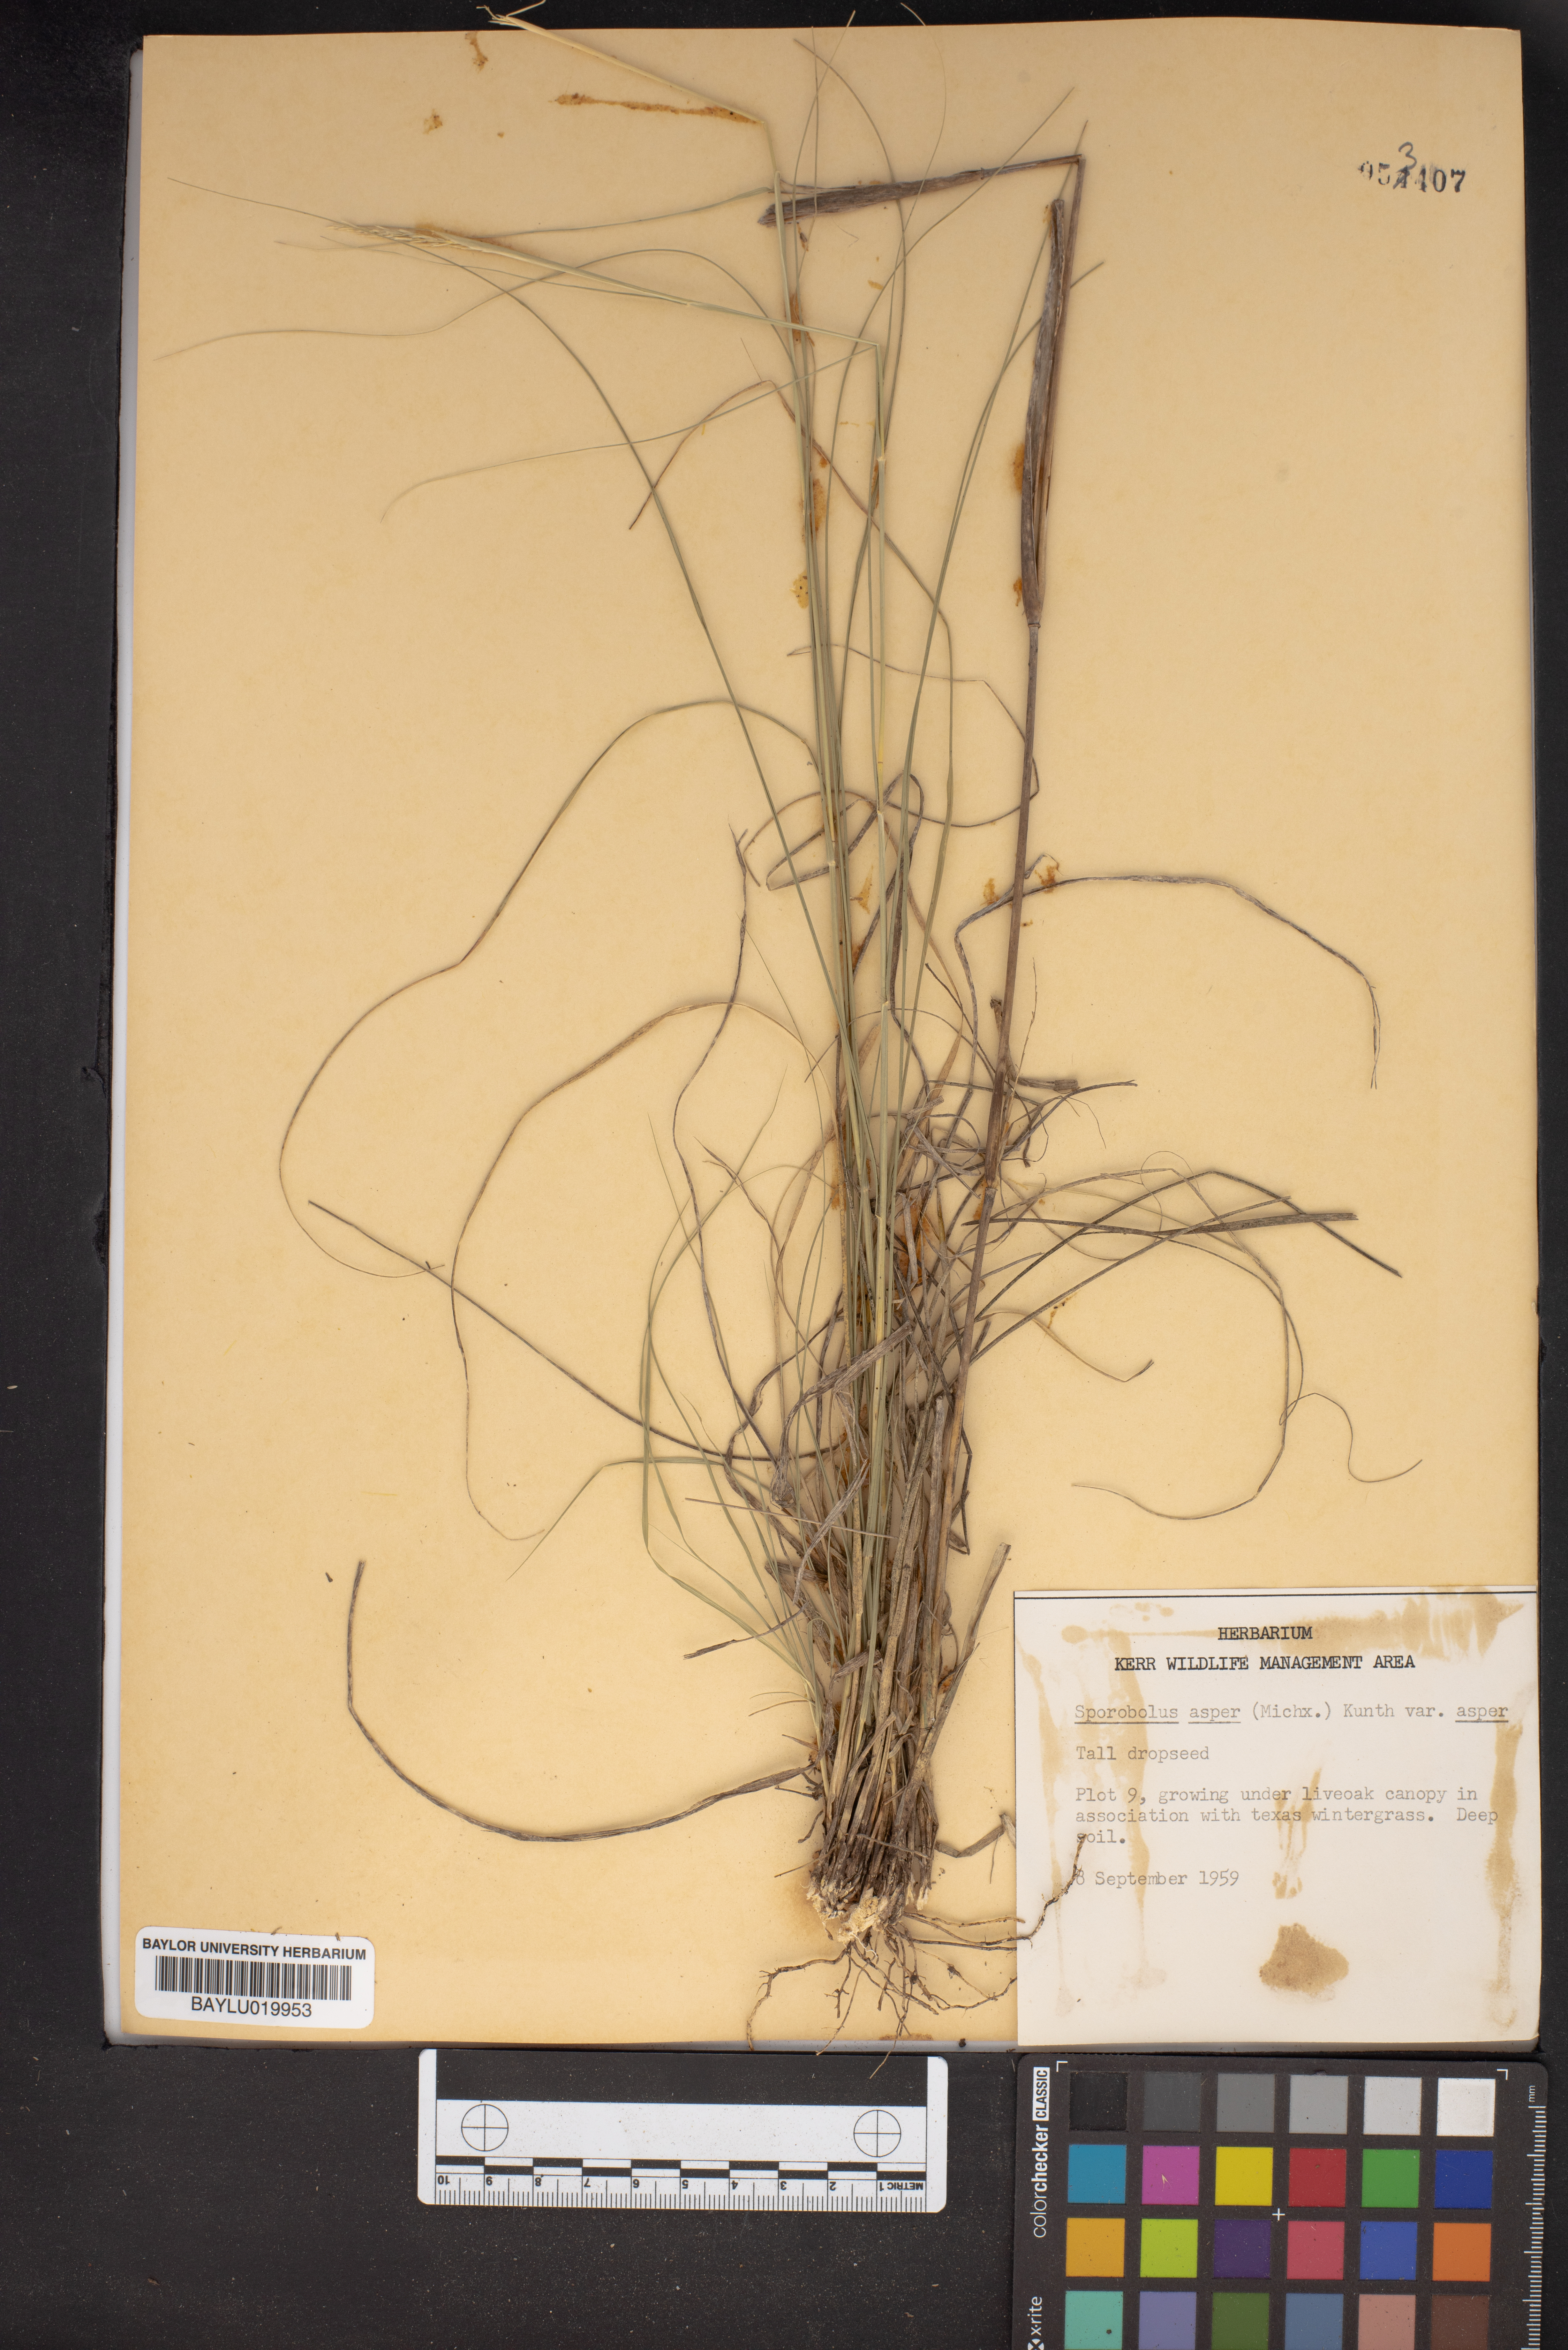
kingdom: Plantae
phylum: Tracheophyta
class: Liliopsida
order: Poales
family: Poaceae
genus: Sporobolus
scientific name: Sporobolus compositus
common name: Rough dropseed
